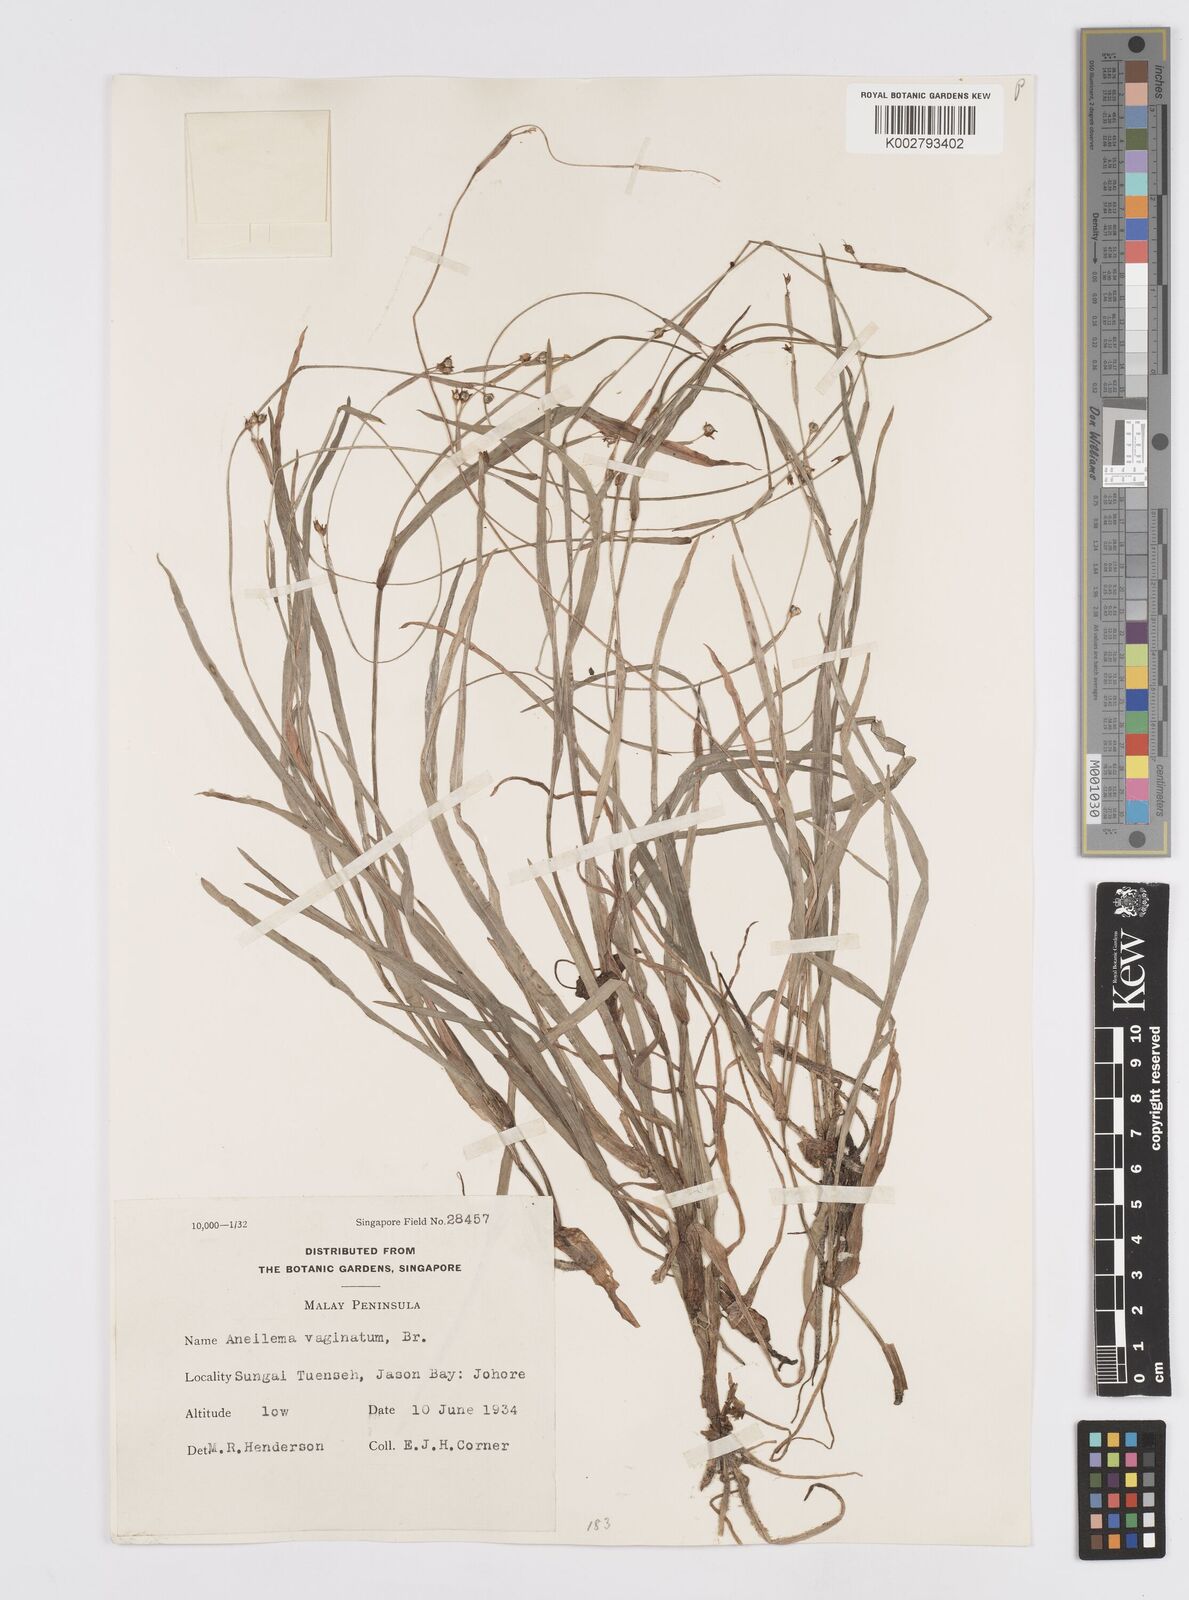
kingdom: Plantae
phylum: Tracheophyta
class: Liliopsida
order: Commelinales
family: Commelinaceae
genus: Murdannia
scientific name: Murdannia vaginata
